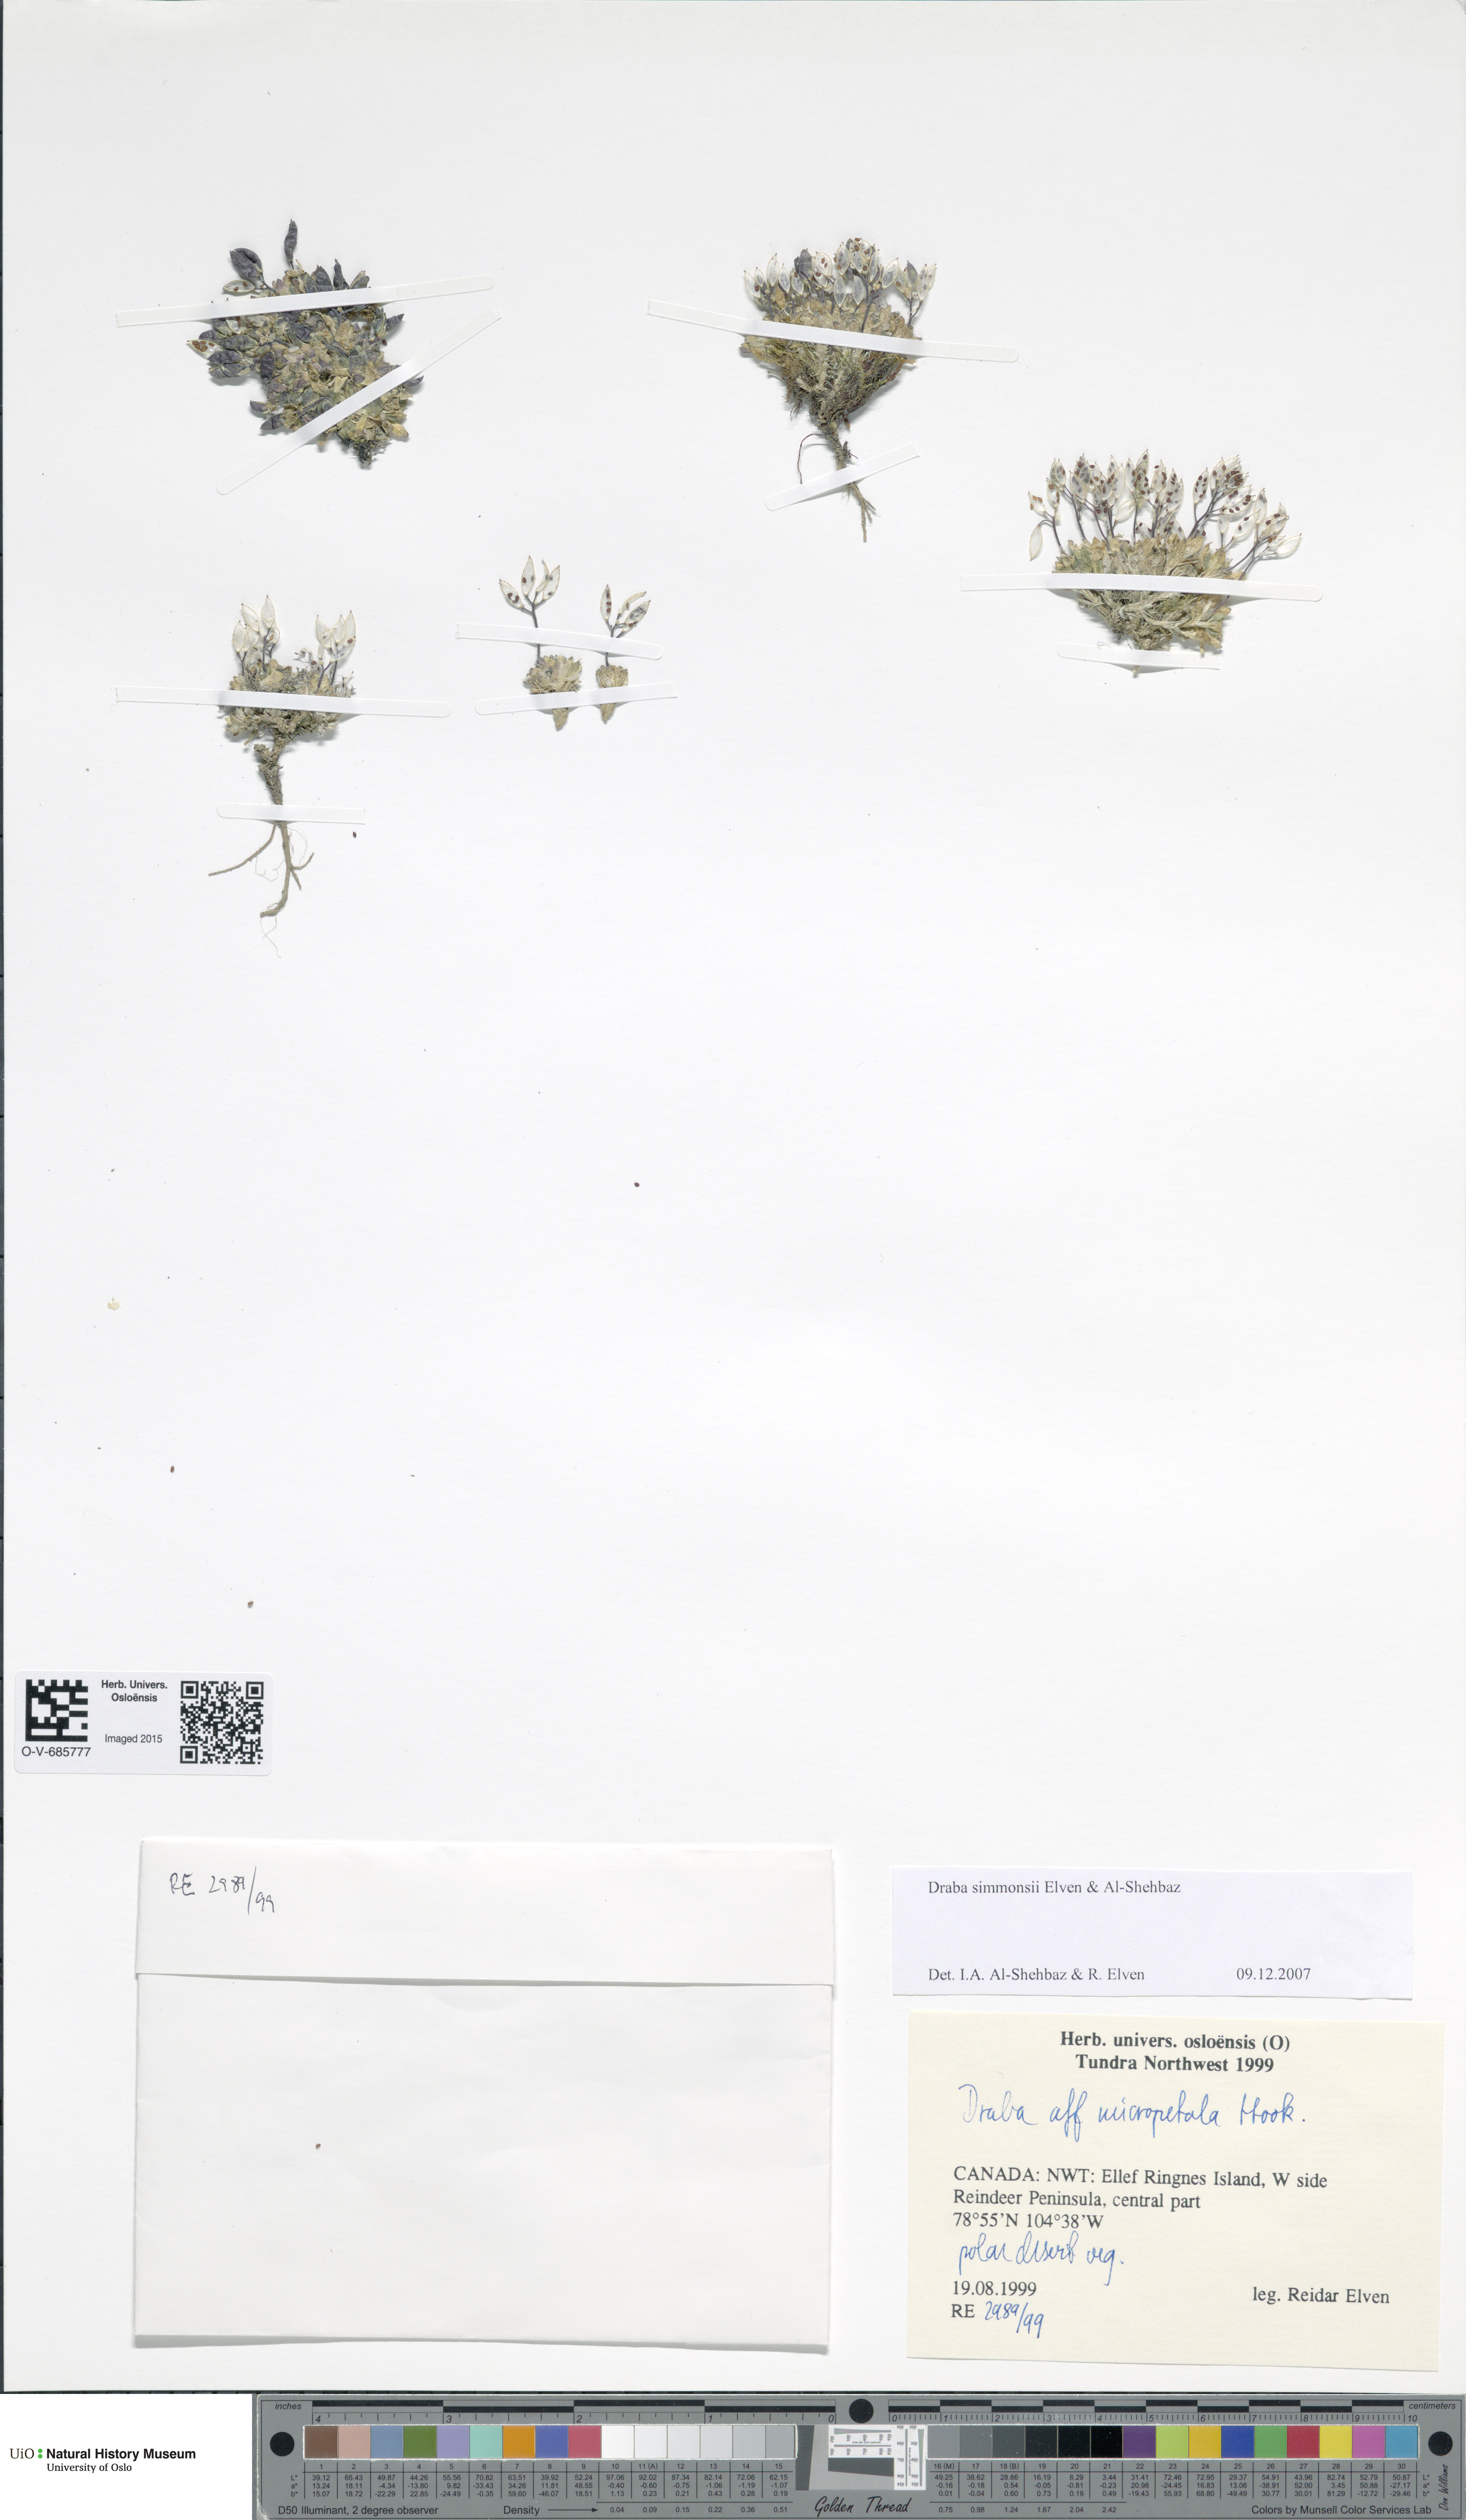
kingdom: Plantae
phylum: Tracheophyta
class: Magnoliopsida
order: Brassicales
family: Brassicaceae
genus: Draba
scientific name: Draba simmonsii
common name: Simmonds' whitlow-grass
